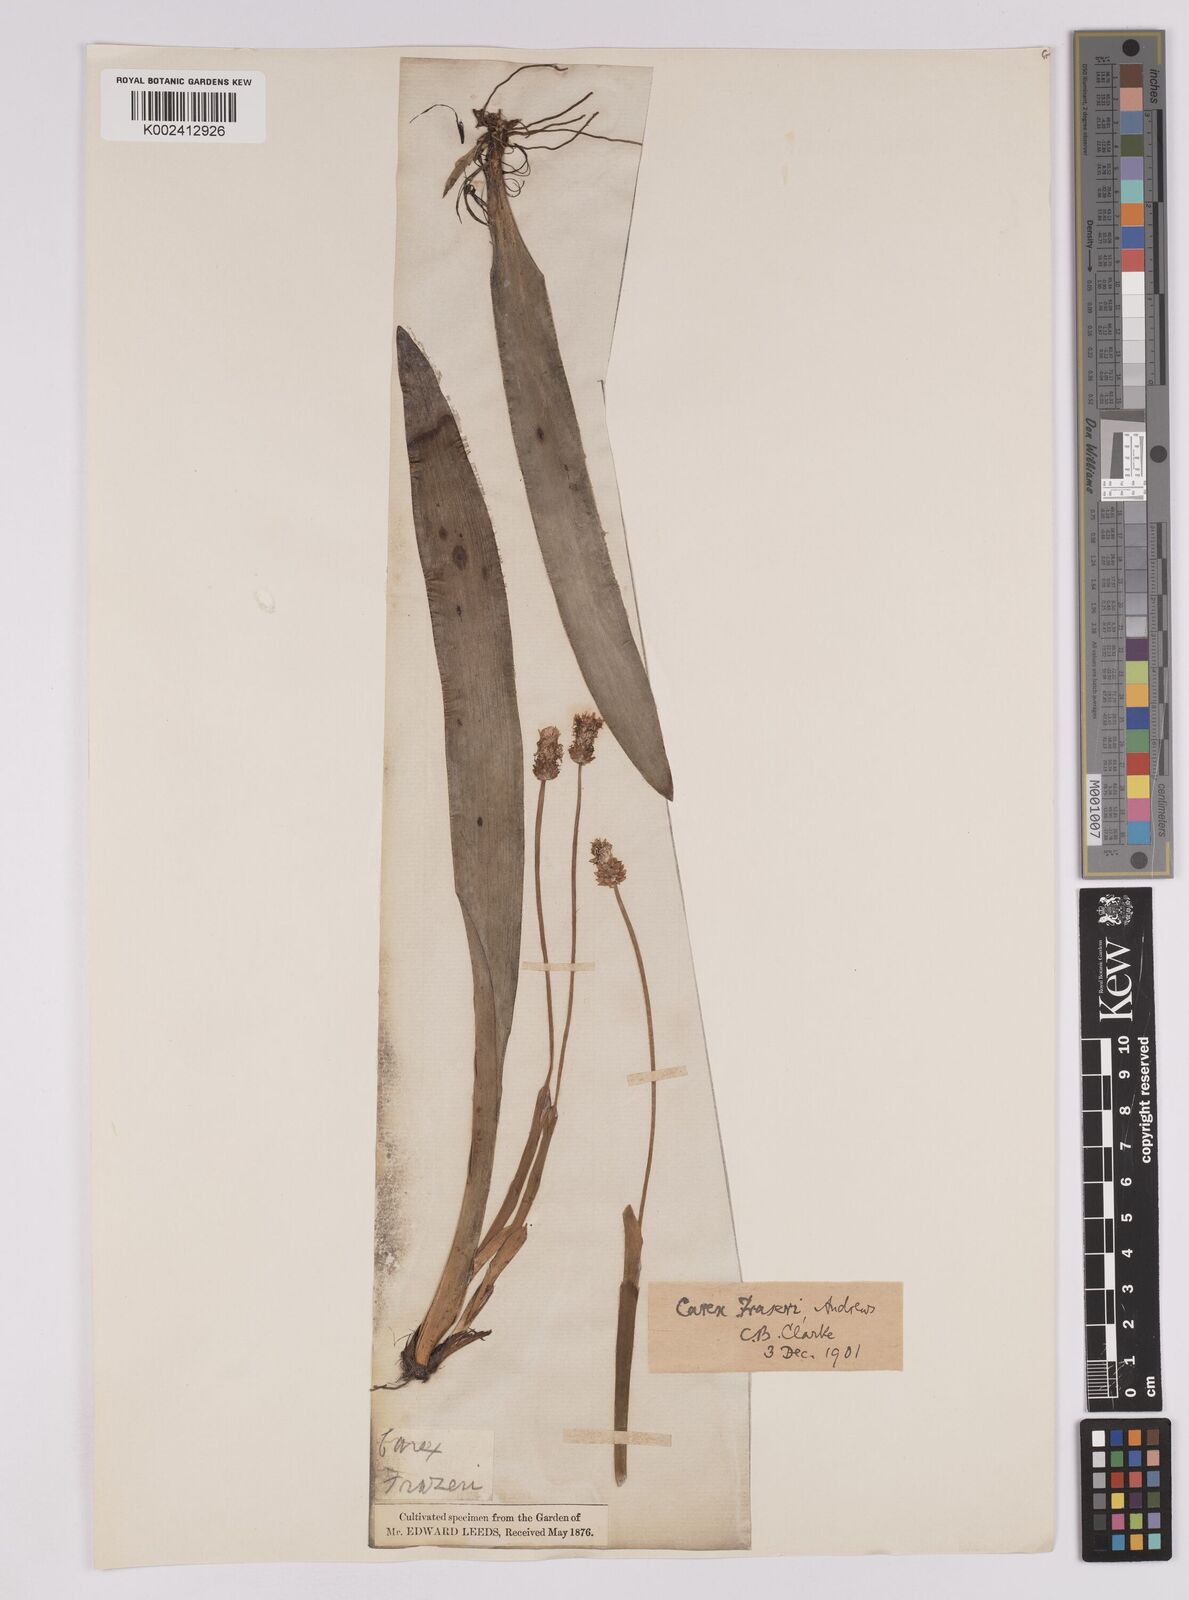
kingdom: Plantae
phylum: Tracheophyta
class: Liliopsida
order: Poales
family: Cyperaceae
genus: Carex
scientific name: Carex fraseriana
